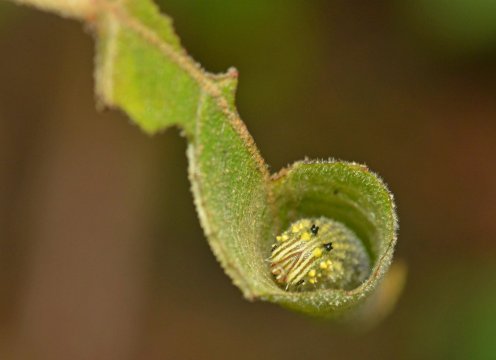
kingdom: Animalia
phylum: Arthropoda
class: Insecta
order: Lepidoptera
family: Nymphalidae
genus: Consul
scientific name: Consul fabius
